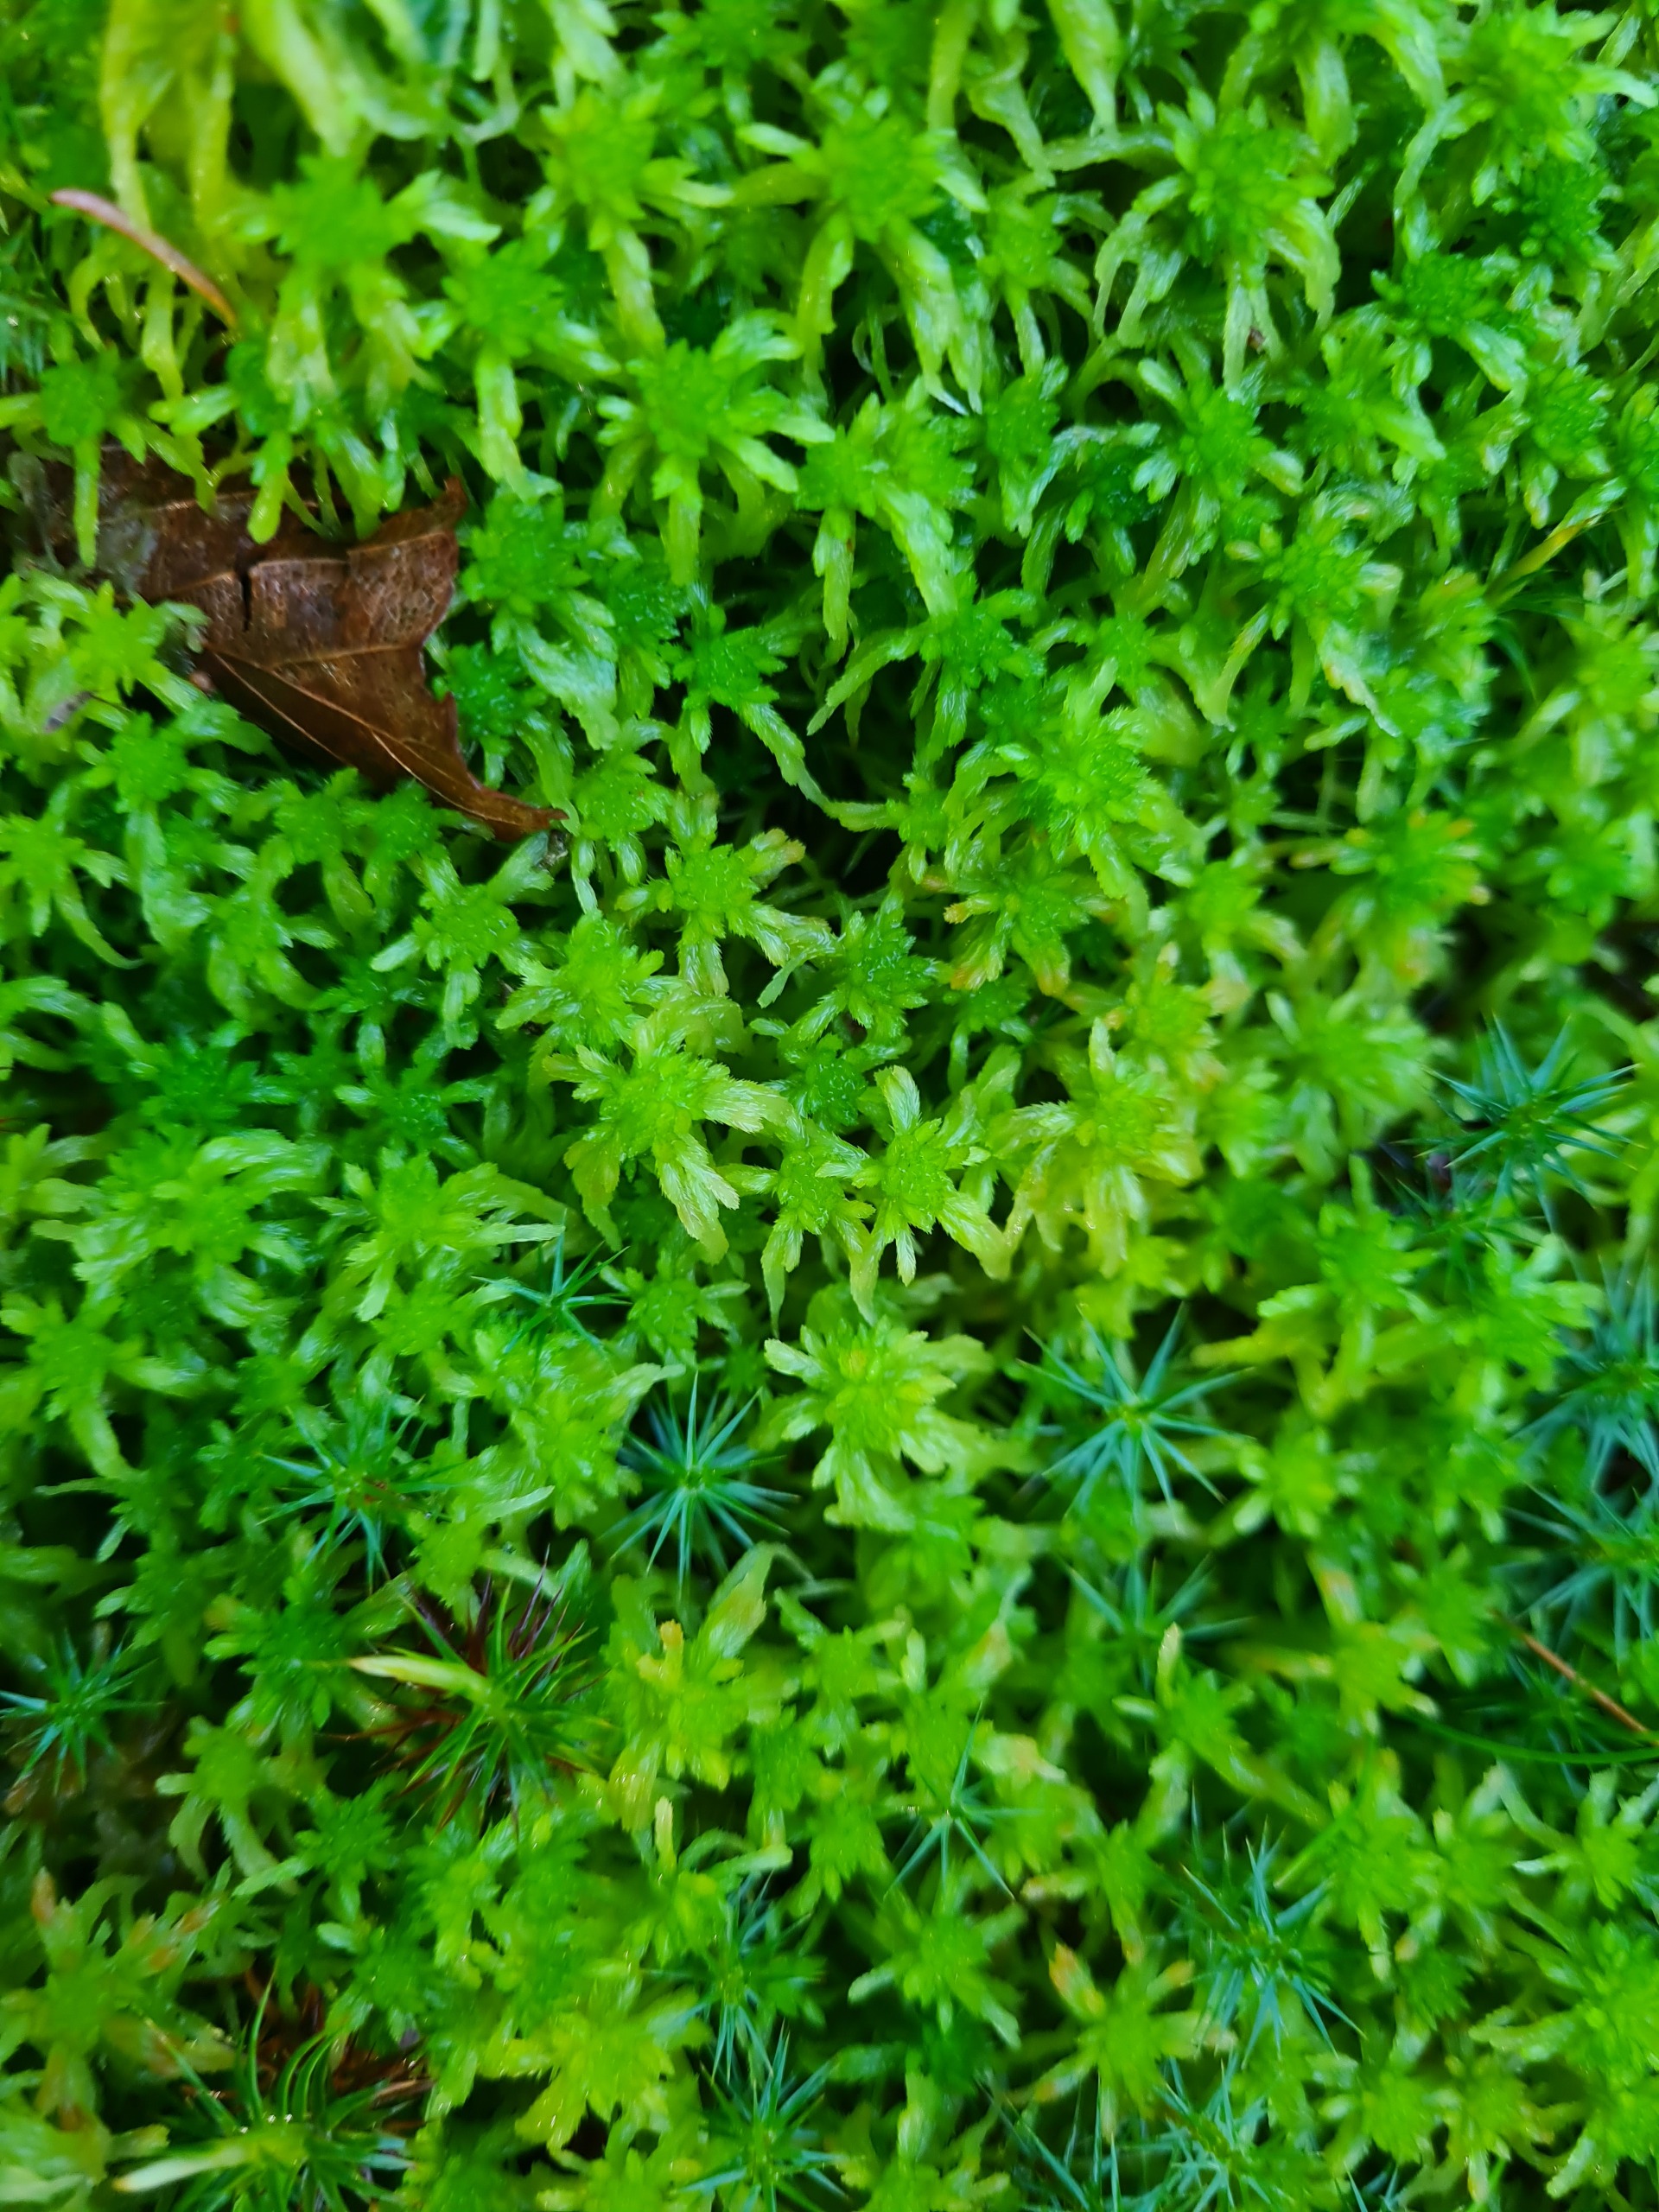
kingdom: Plantae
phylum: Bryophyta
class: Sphagnopsida
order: Sphagnales
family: Sphagnaceae
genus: Sphagnum
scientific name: Sphagnum
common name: Tørvemosslægten
